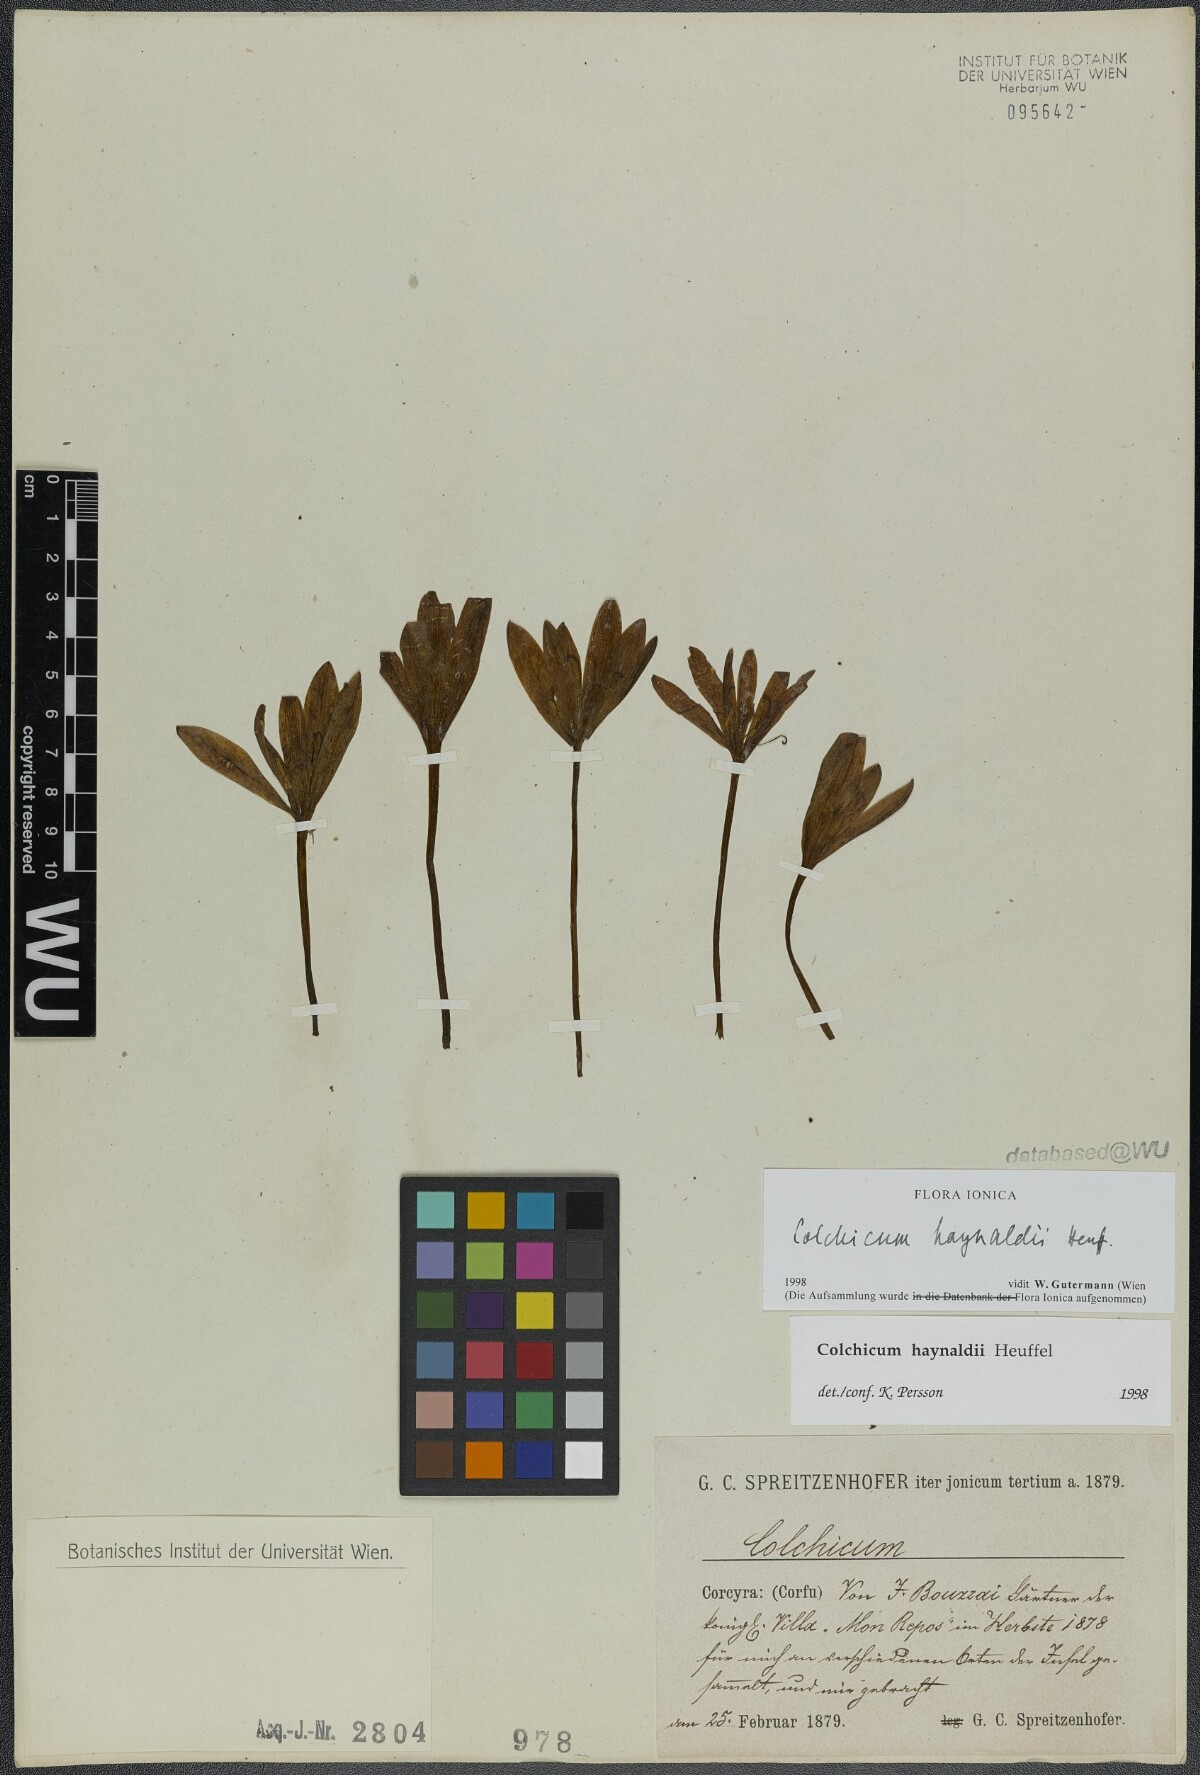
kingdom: Plantae
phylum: Tracheophyta
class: Liliopsida
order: Liliales
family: Colchicaceae
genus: Colchicum
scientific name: Colchicum haynaldii
